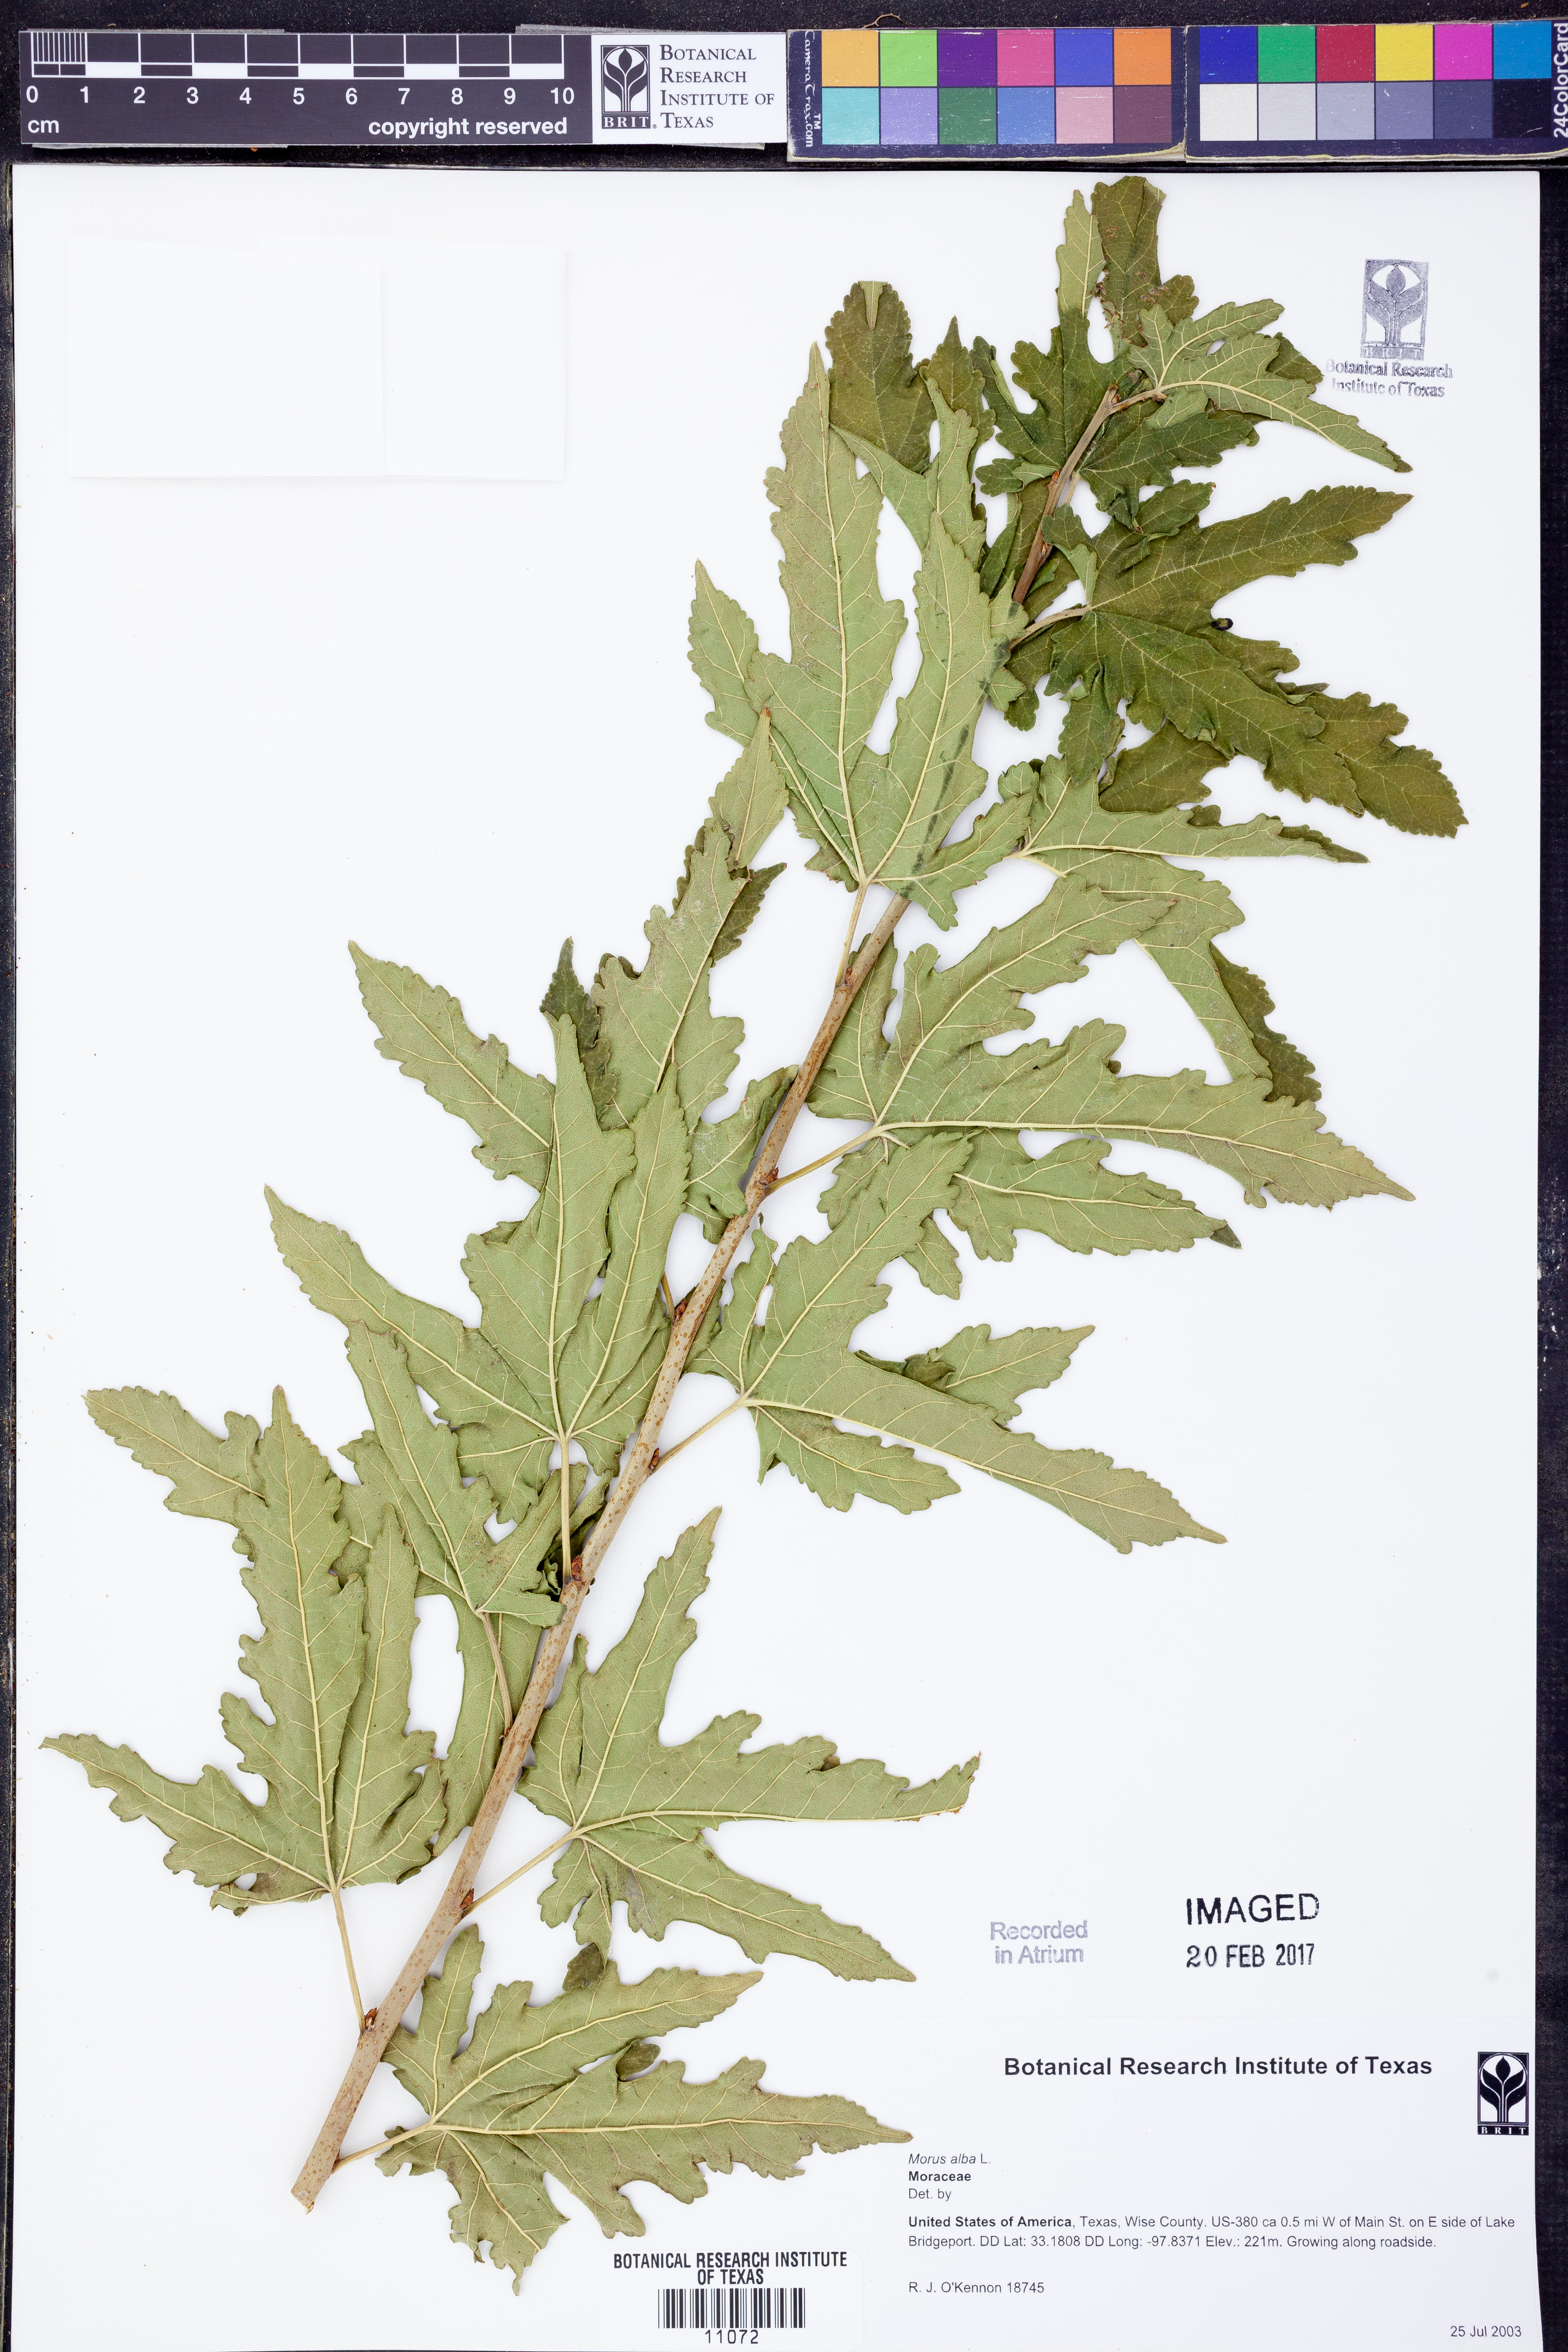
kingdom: Plantae
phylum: Tracheophyta
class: Magnoliopsida
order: Rosales
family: Moraceae
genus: Morus
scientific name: Morus alba
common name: White mulberry
